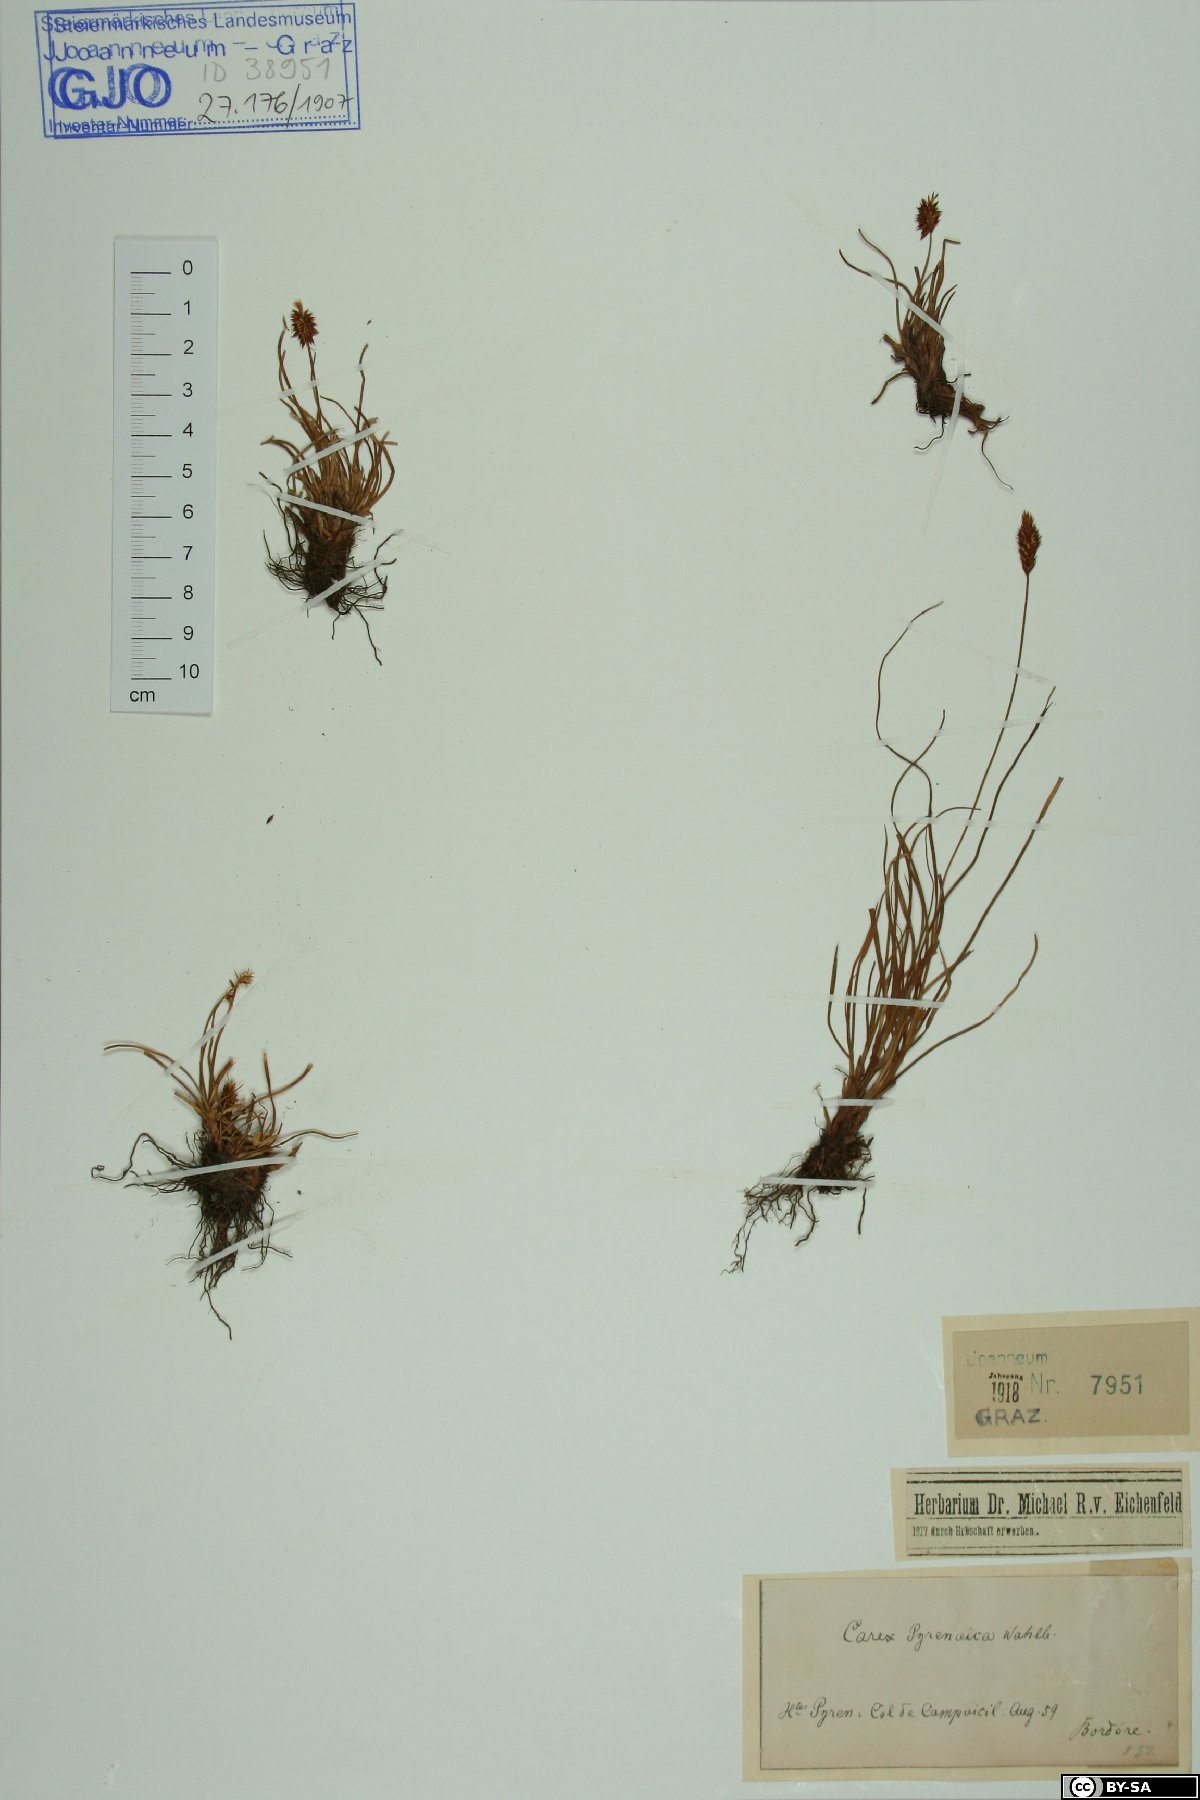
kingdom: Plantae
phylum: Tracheophyta
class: Liliopsida
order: Poales
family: Cyperaceae
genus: Carex
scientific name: Carex pyrenaica
